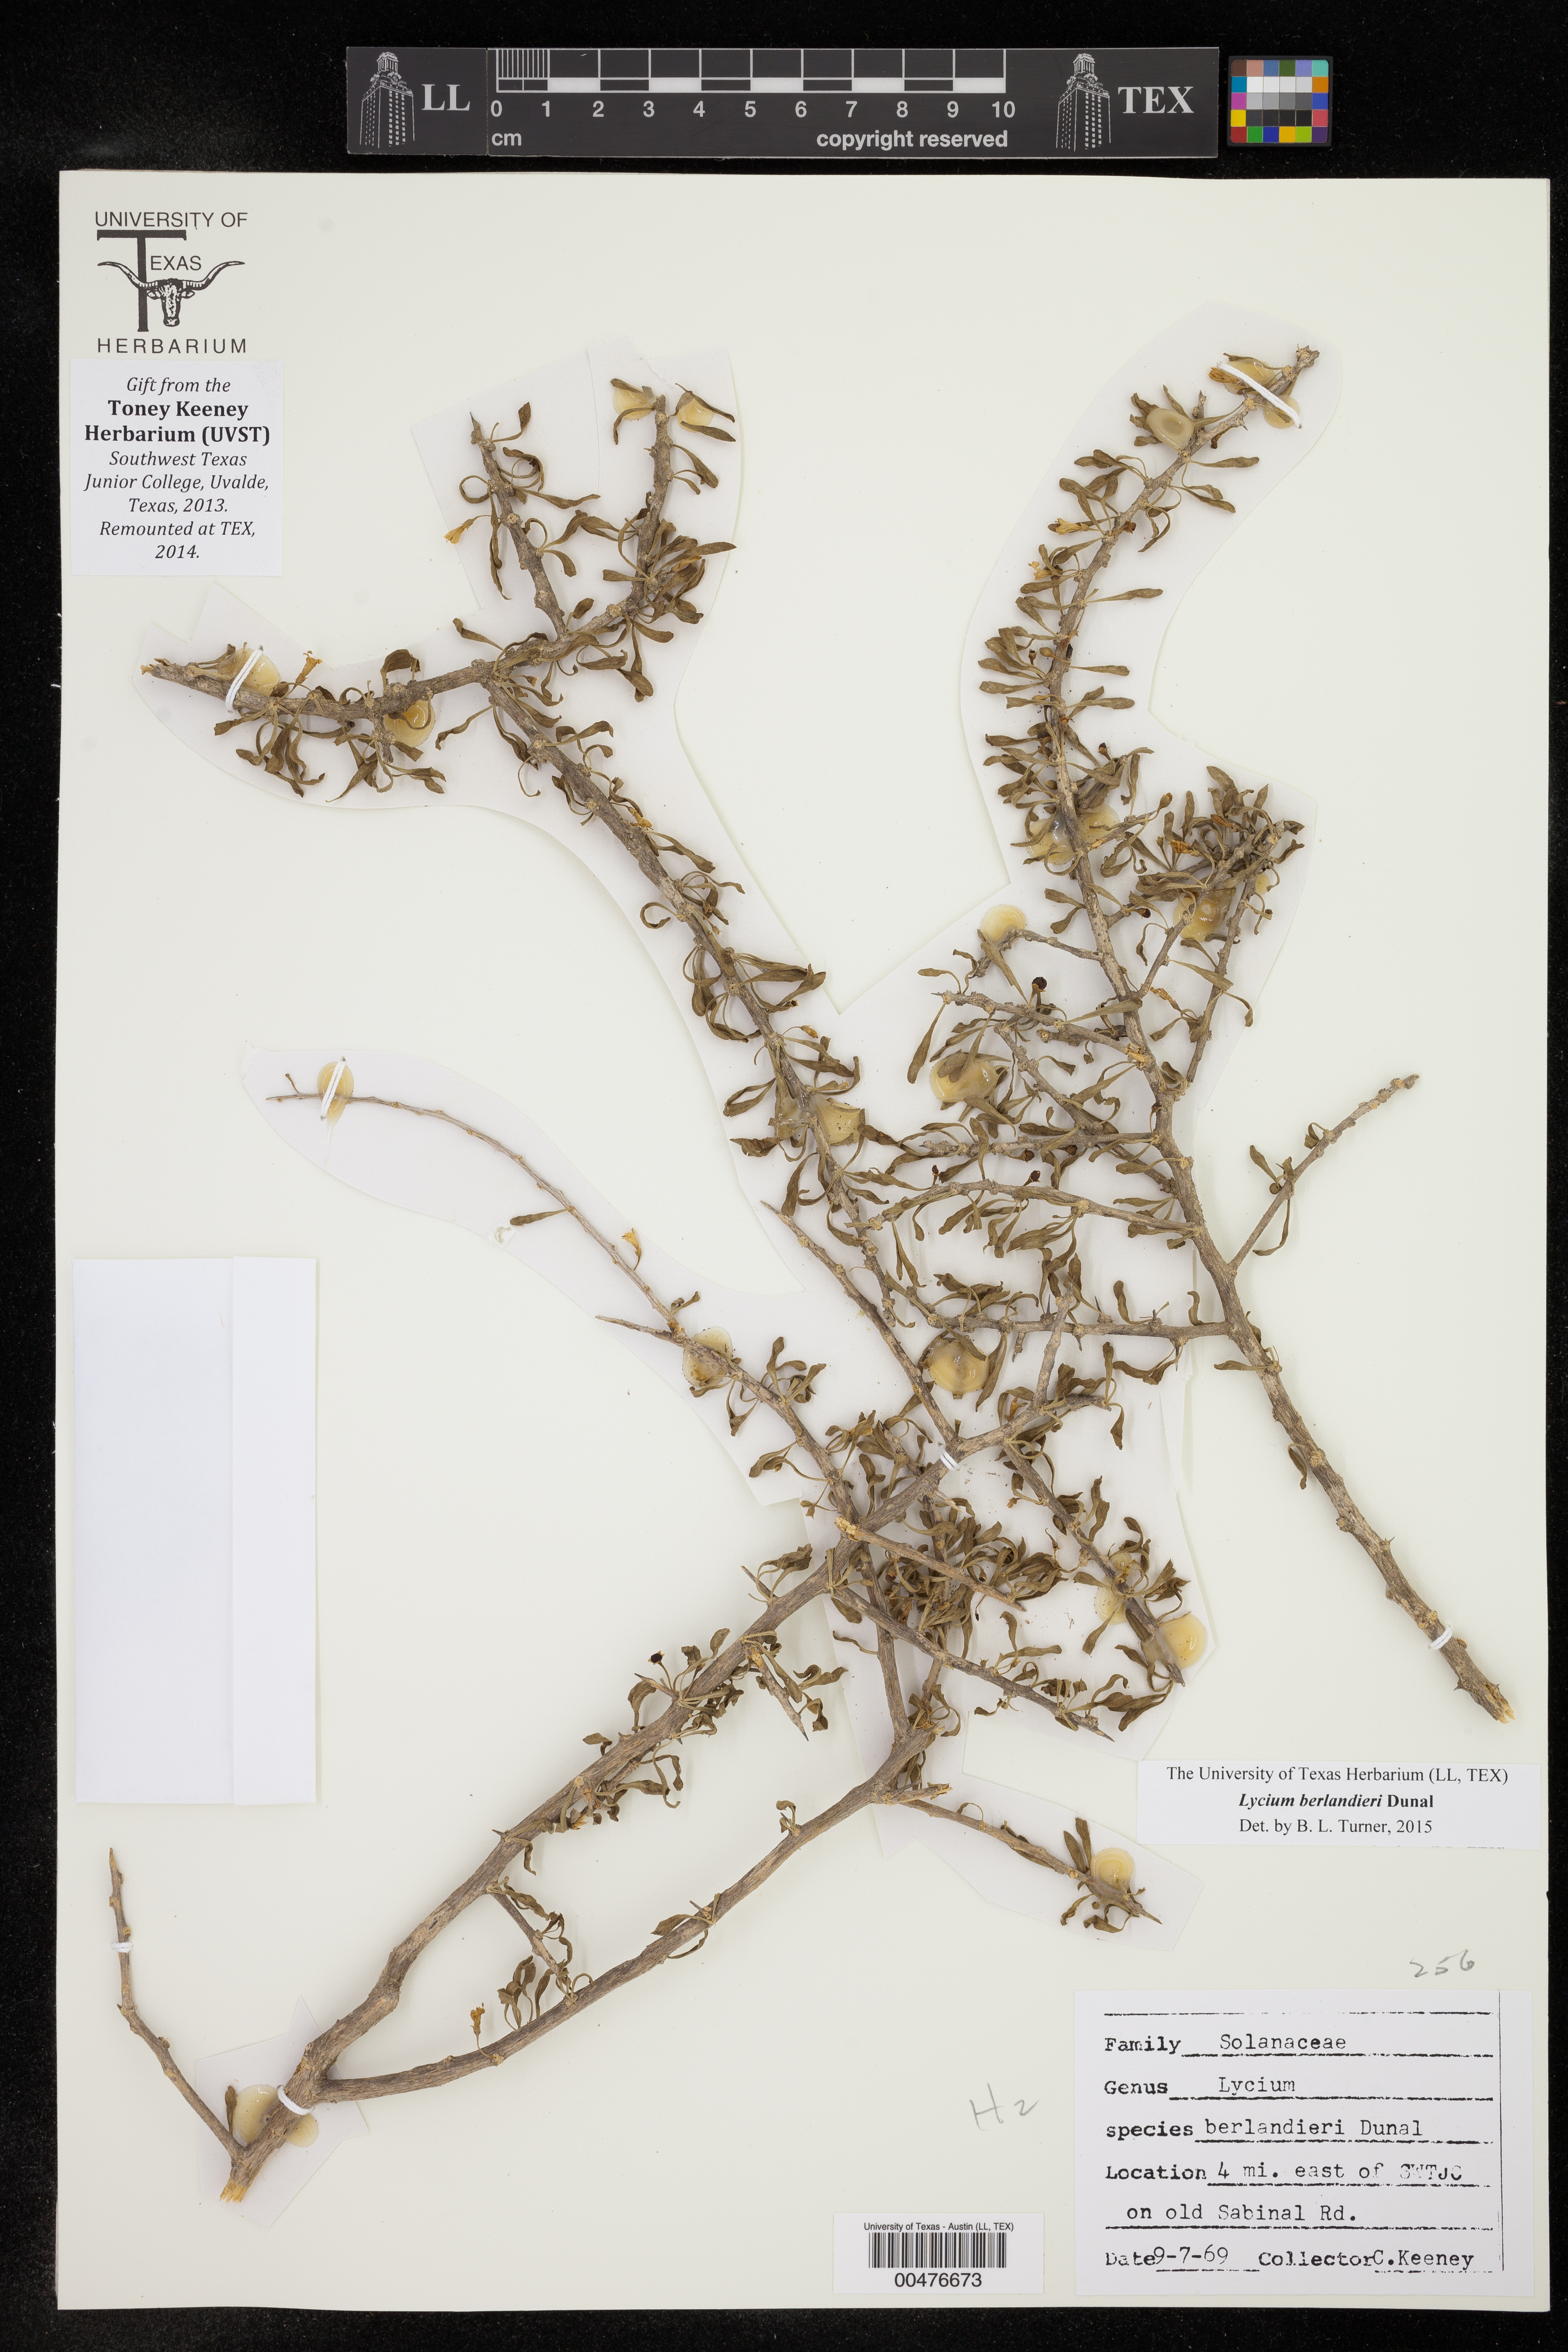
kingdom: Plantae
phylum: Tracheophyta
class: Magnoliopsida
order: Solanales
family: Solanaceae
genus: Lycium
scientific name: Lycium berlandieri
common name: Berlandier wolfberry
